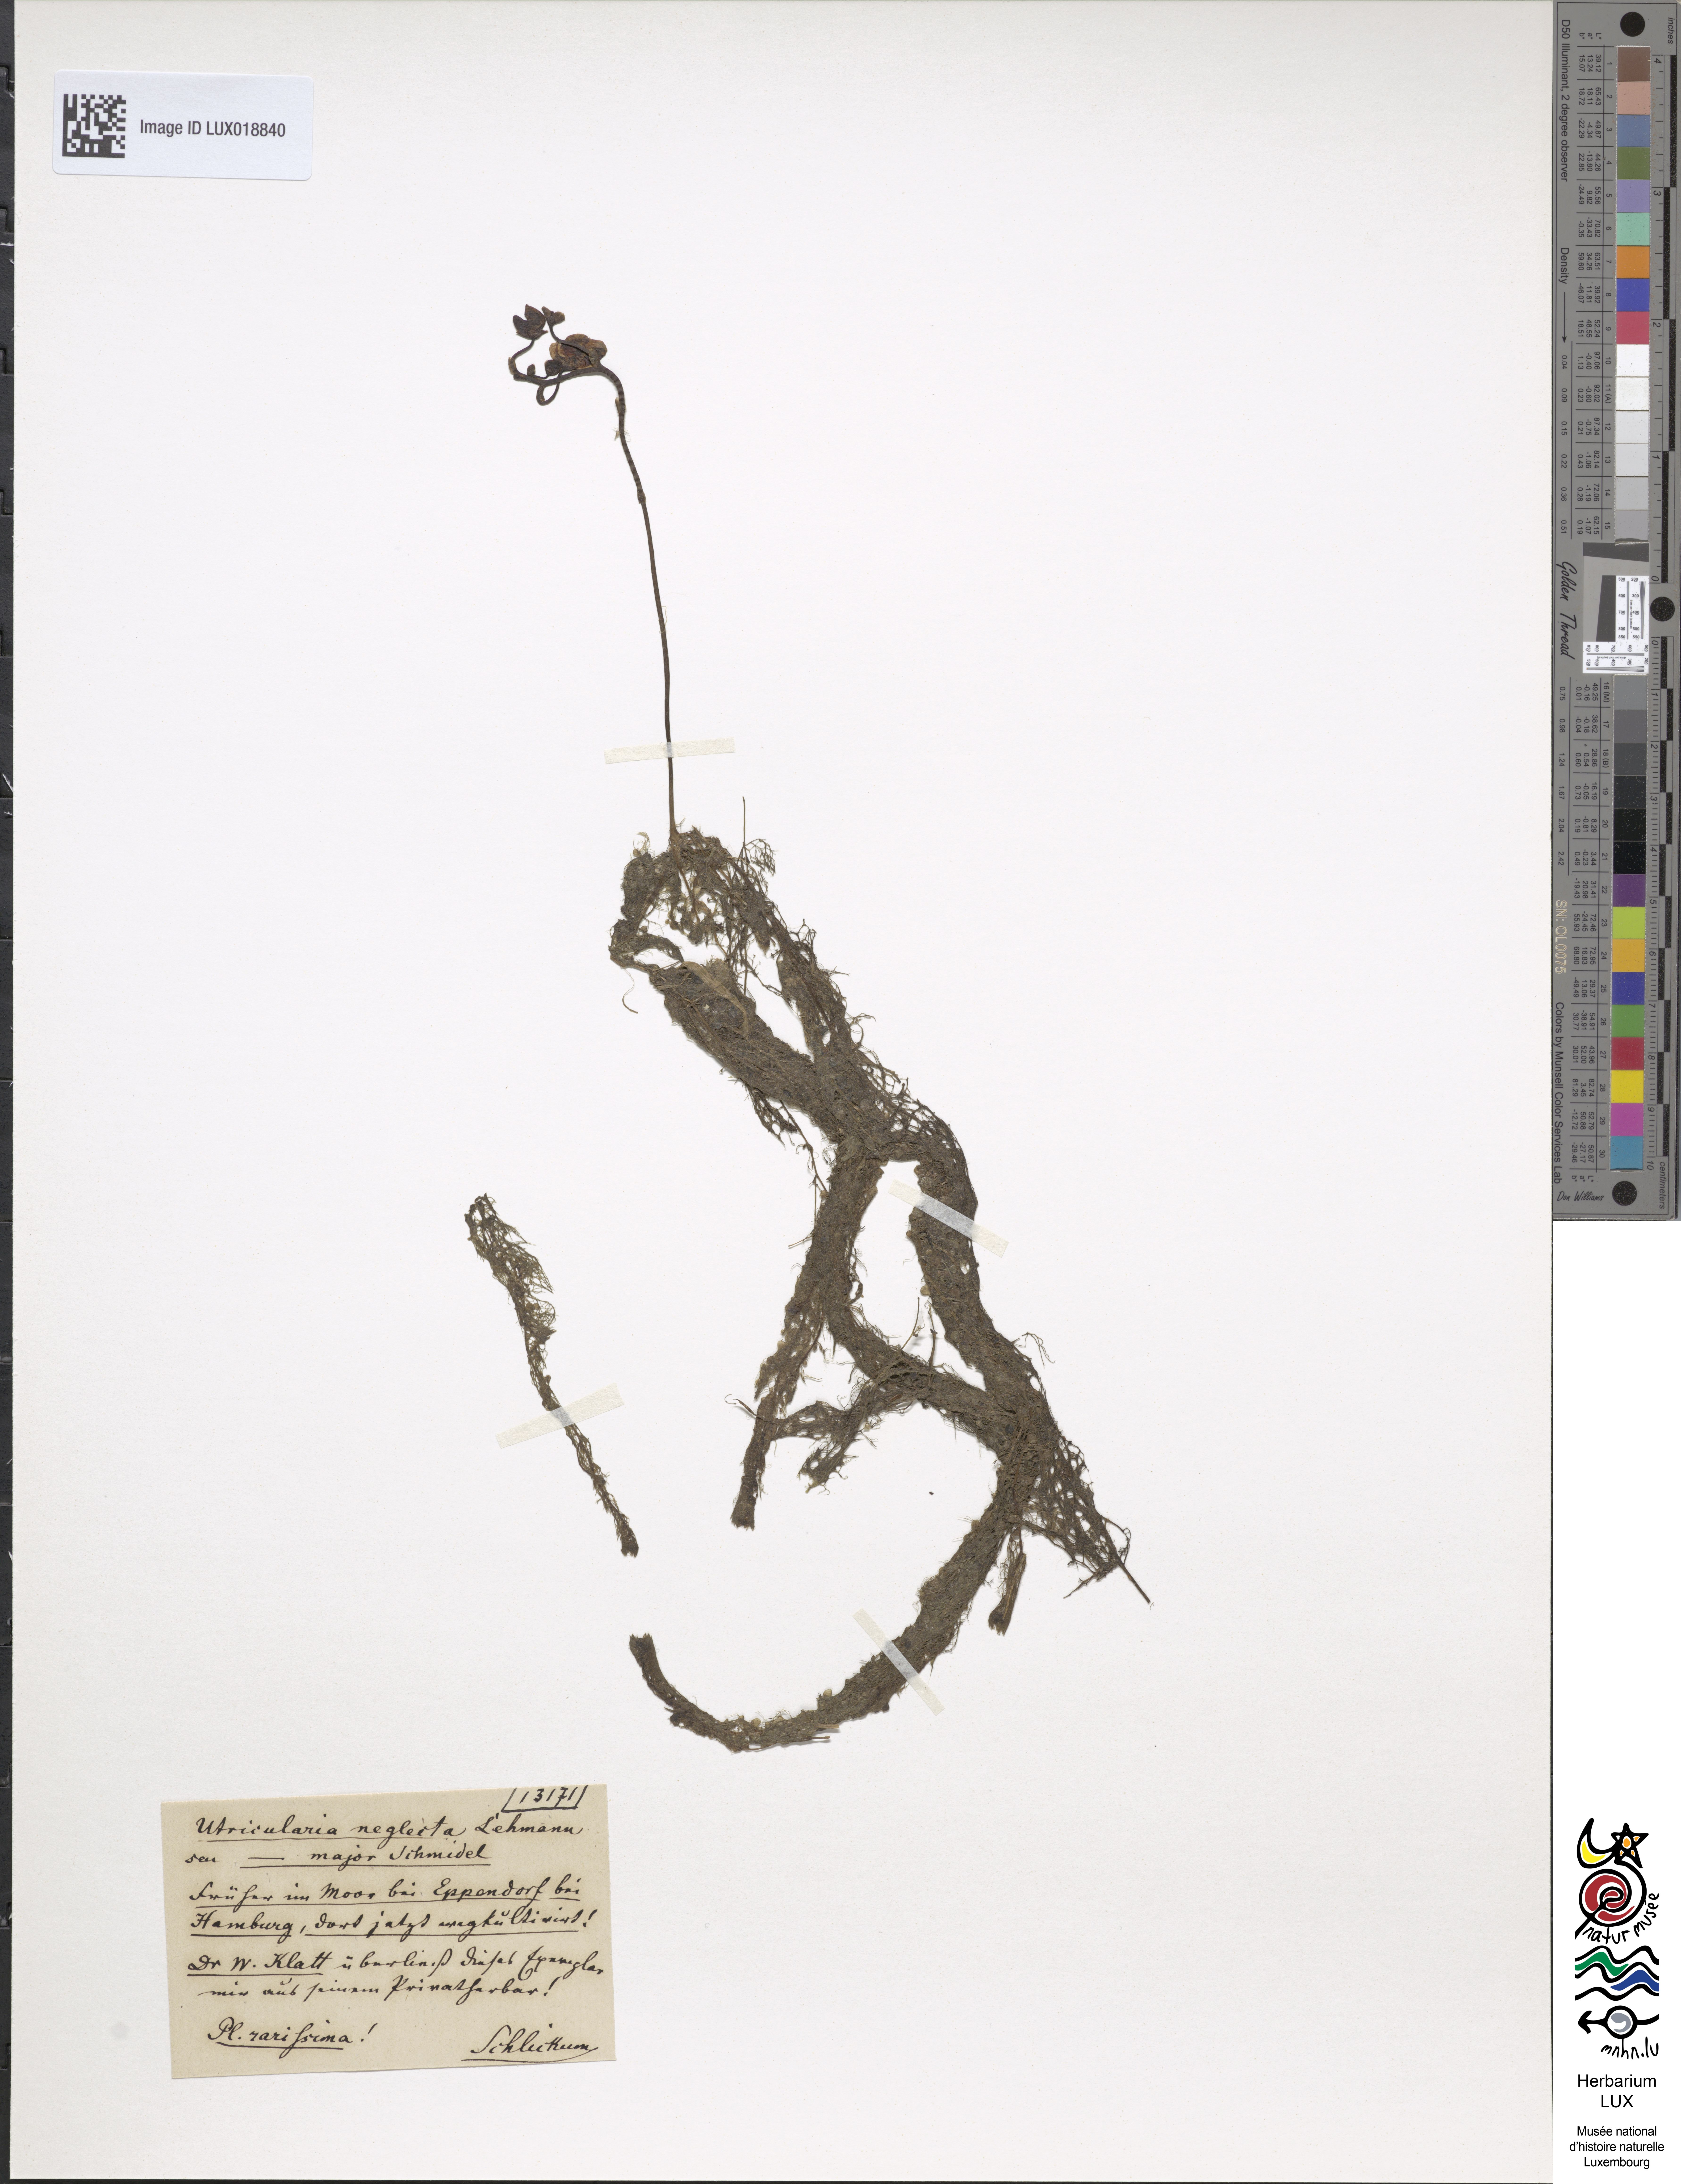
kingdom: Plantae
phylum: Tracheophyta
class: Magnoliopsida
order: Lamiales
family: Lentibulariaceae
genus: Utricularia
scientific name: Utricularia australis
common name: Bladderwort
